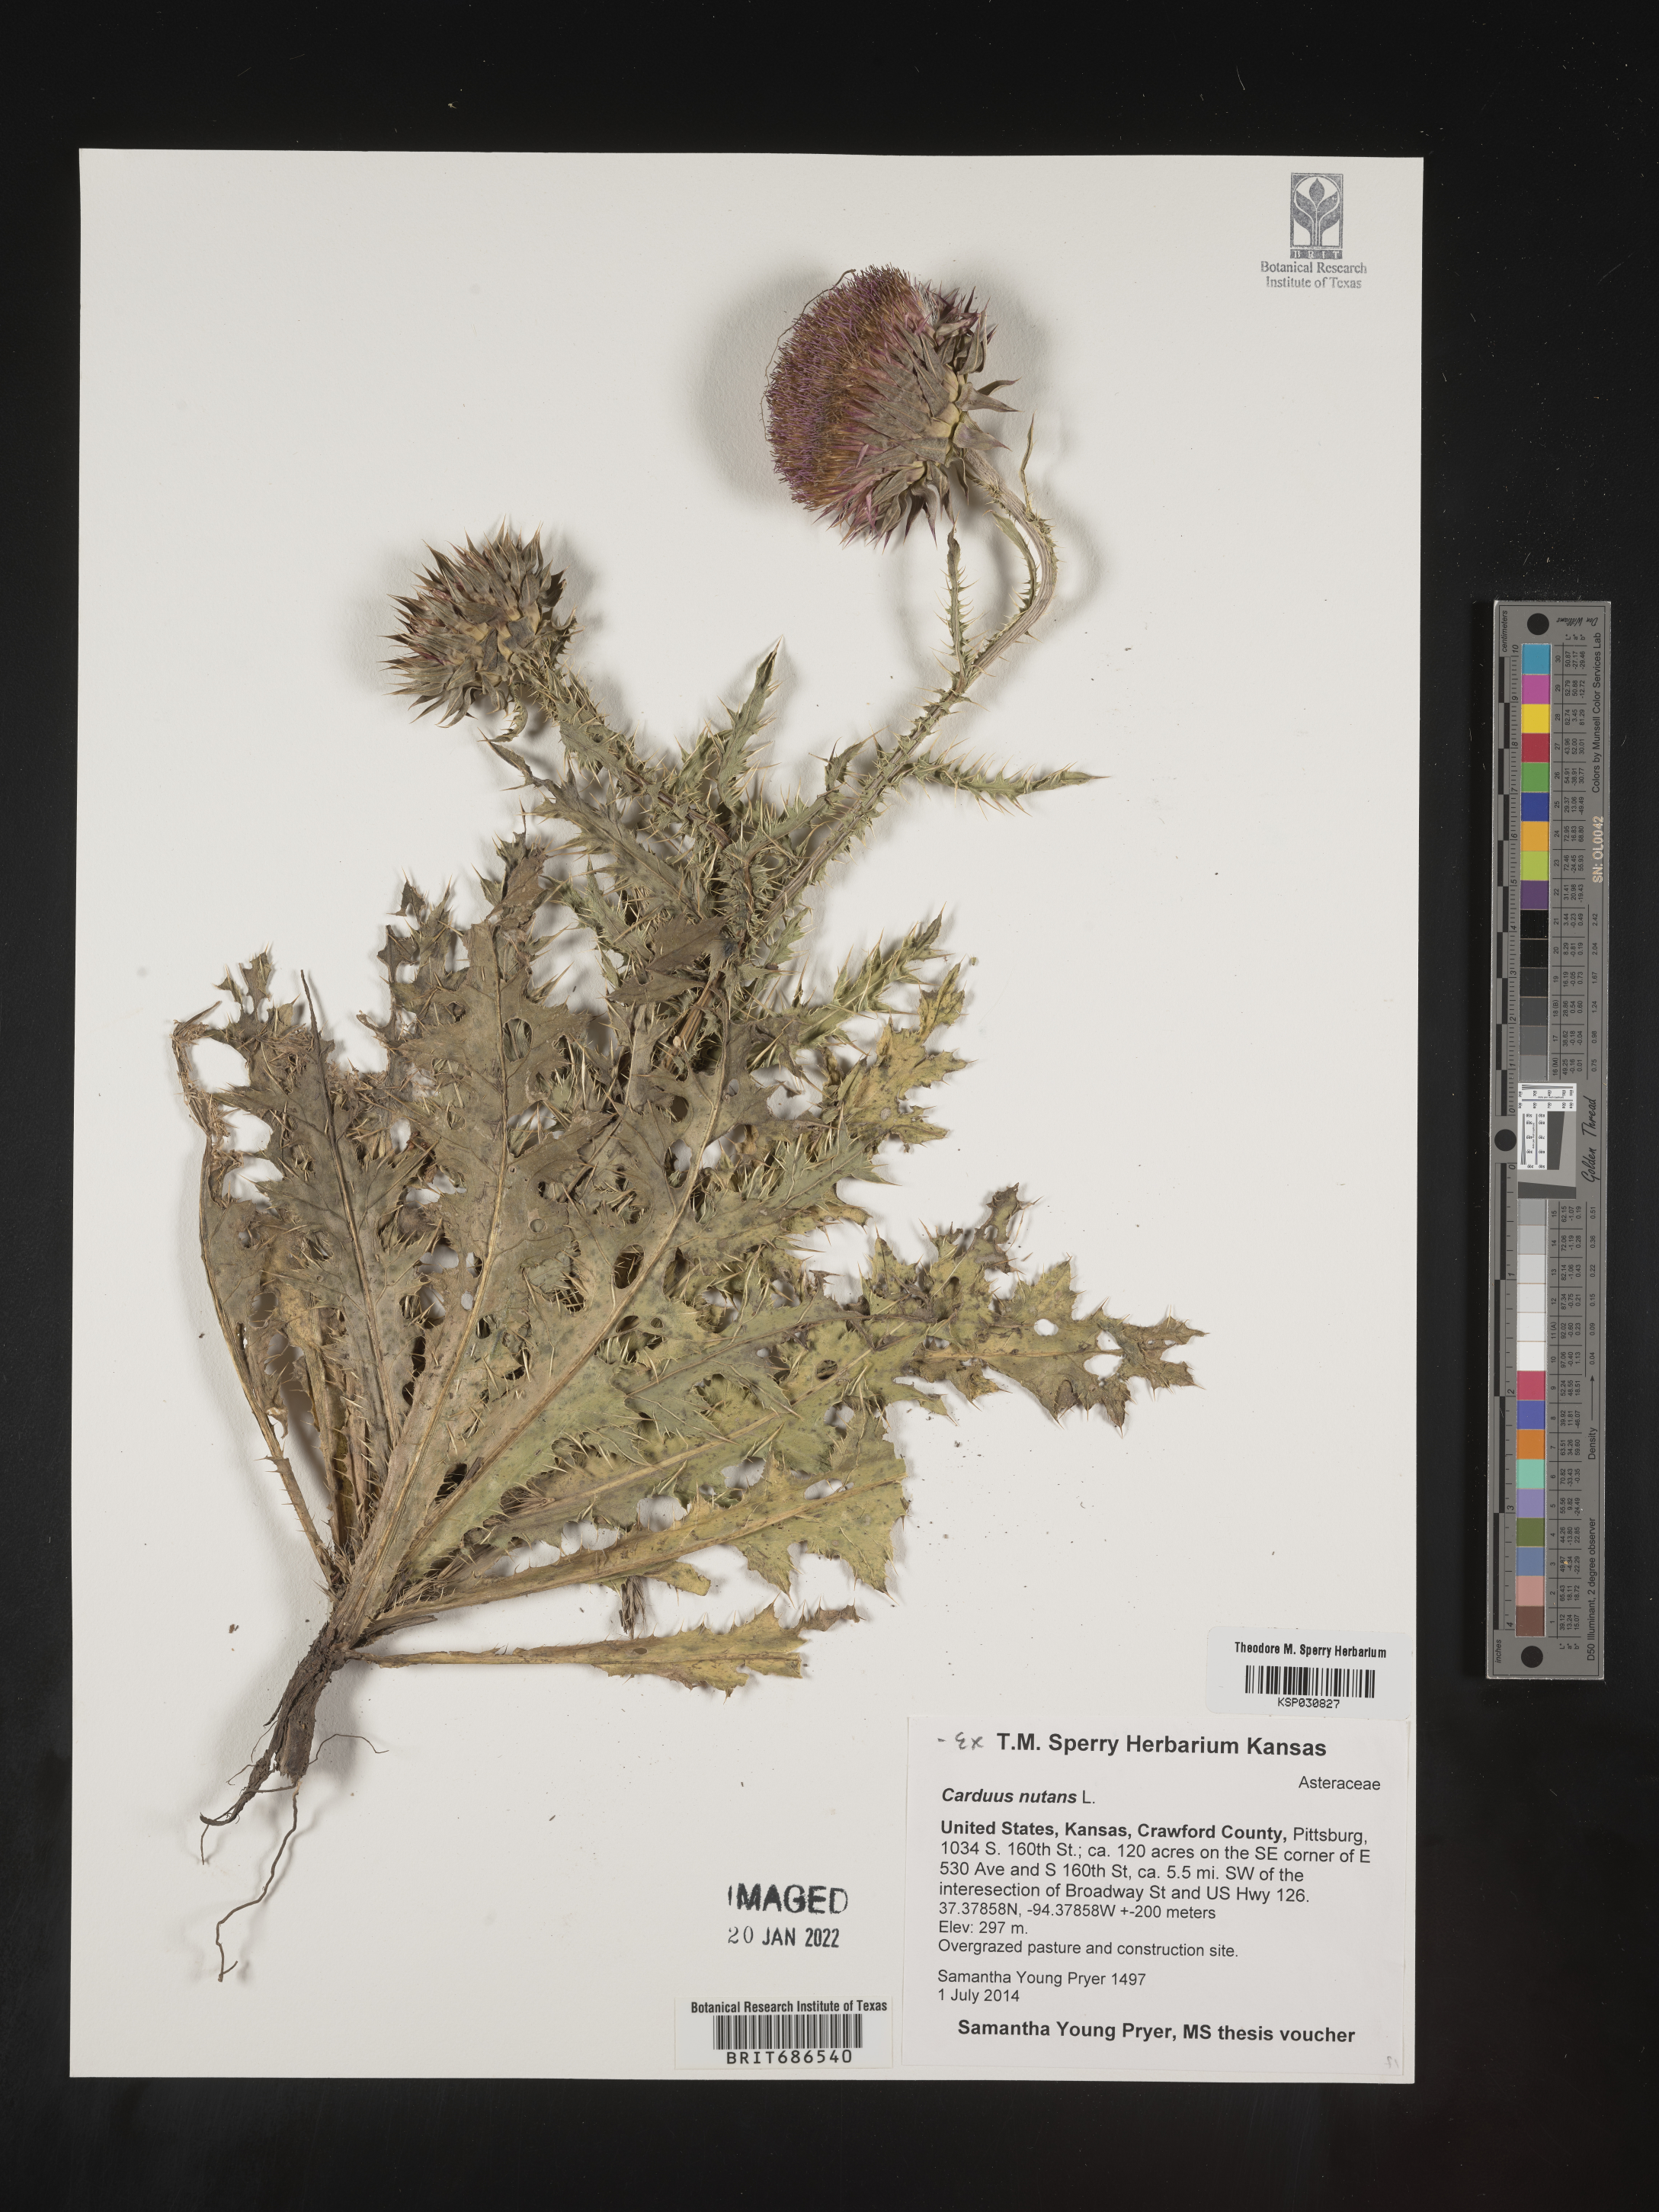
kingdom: Plantae
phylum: Tracheophyta
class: Magnoliopsida
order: Asterales
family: Asteraceae
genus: Carduus
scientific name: Carduus nutans
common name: Musk thistle
